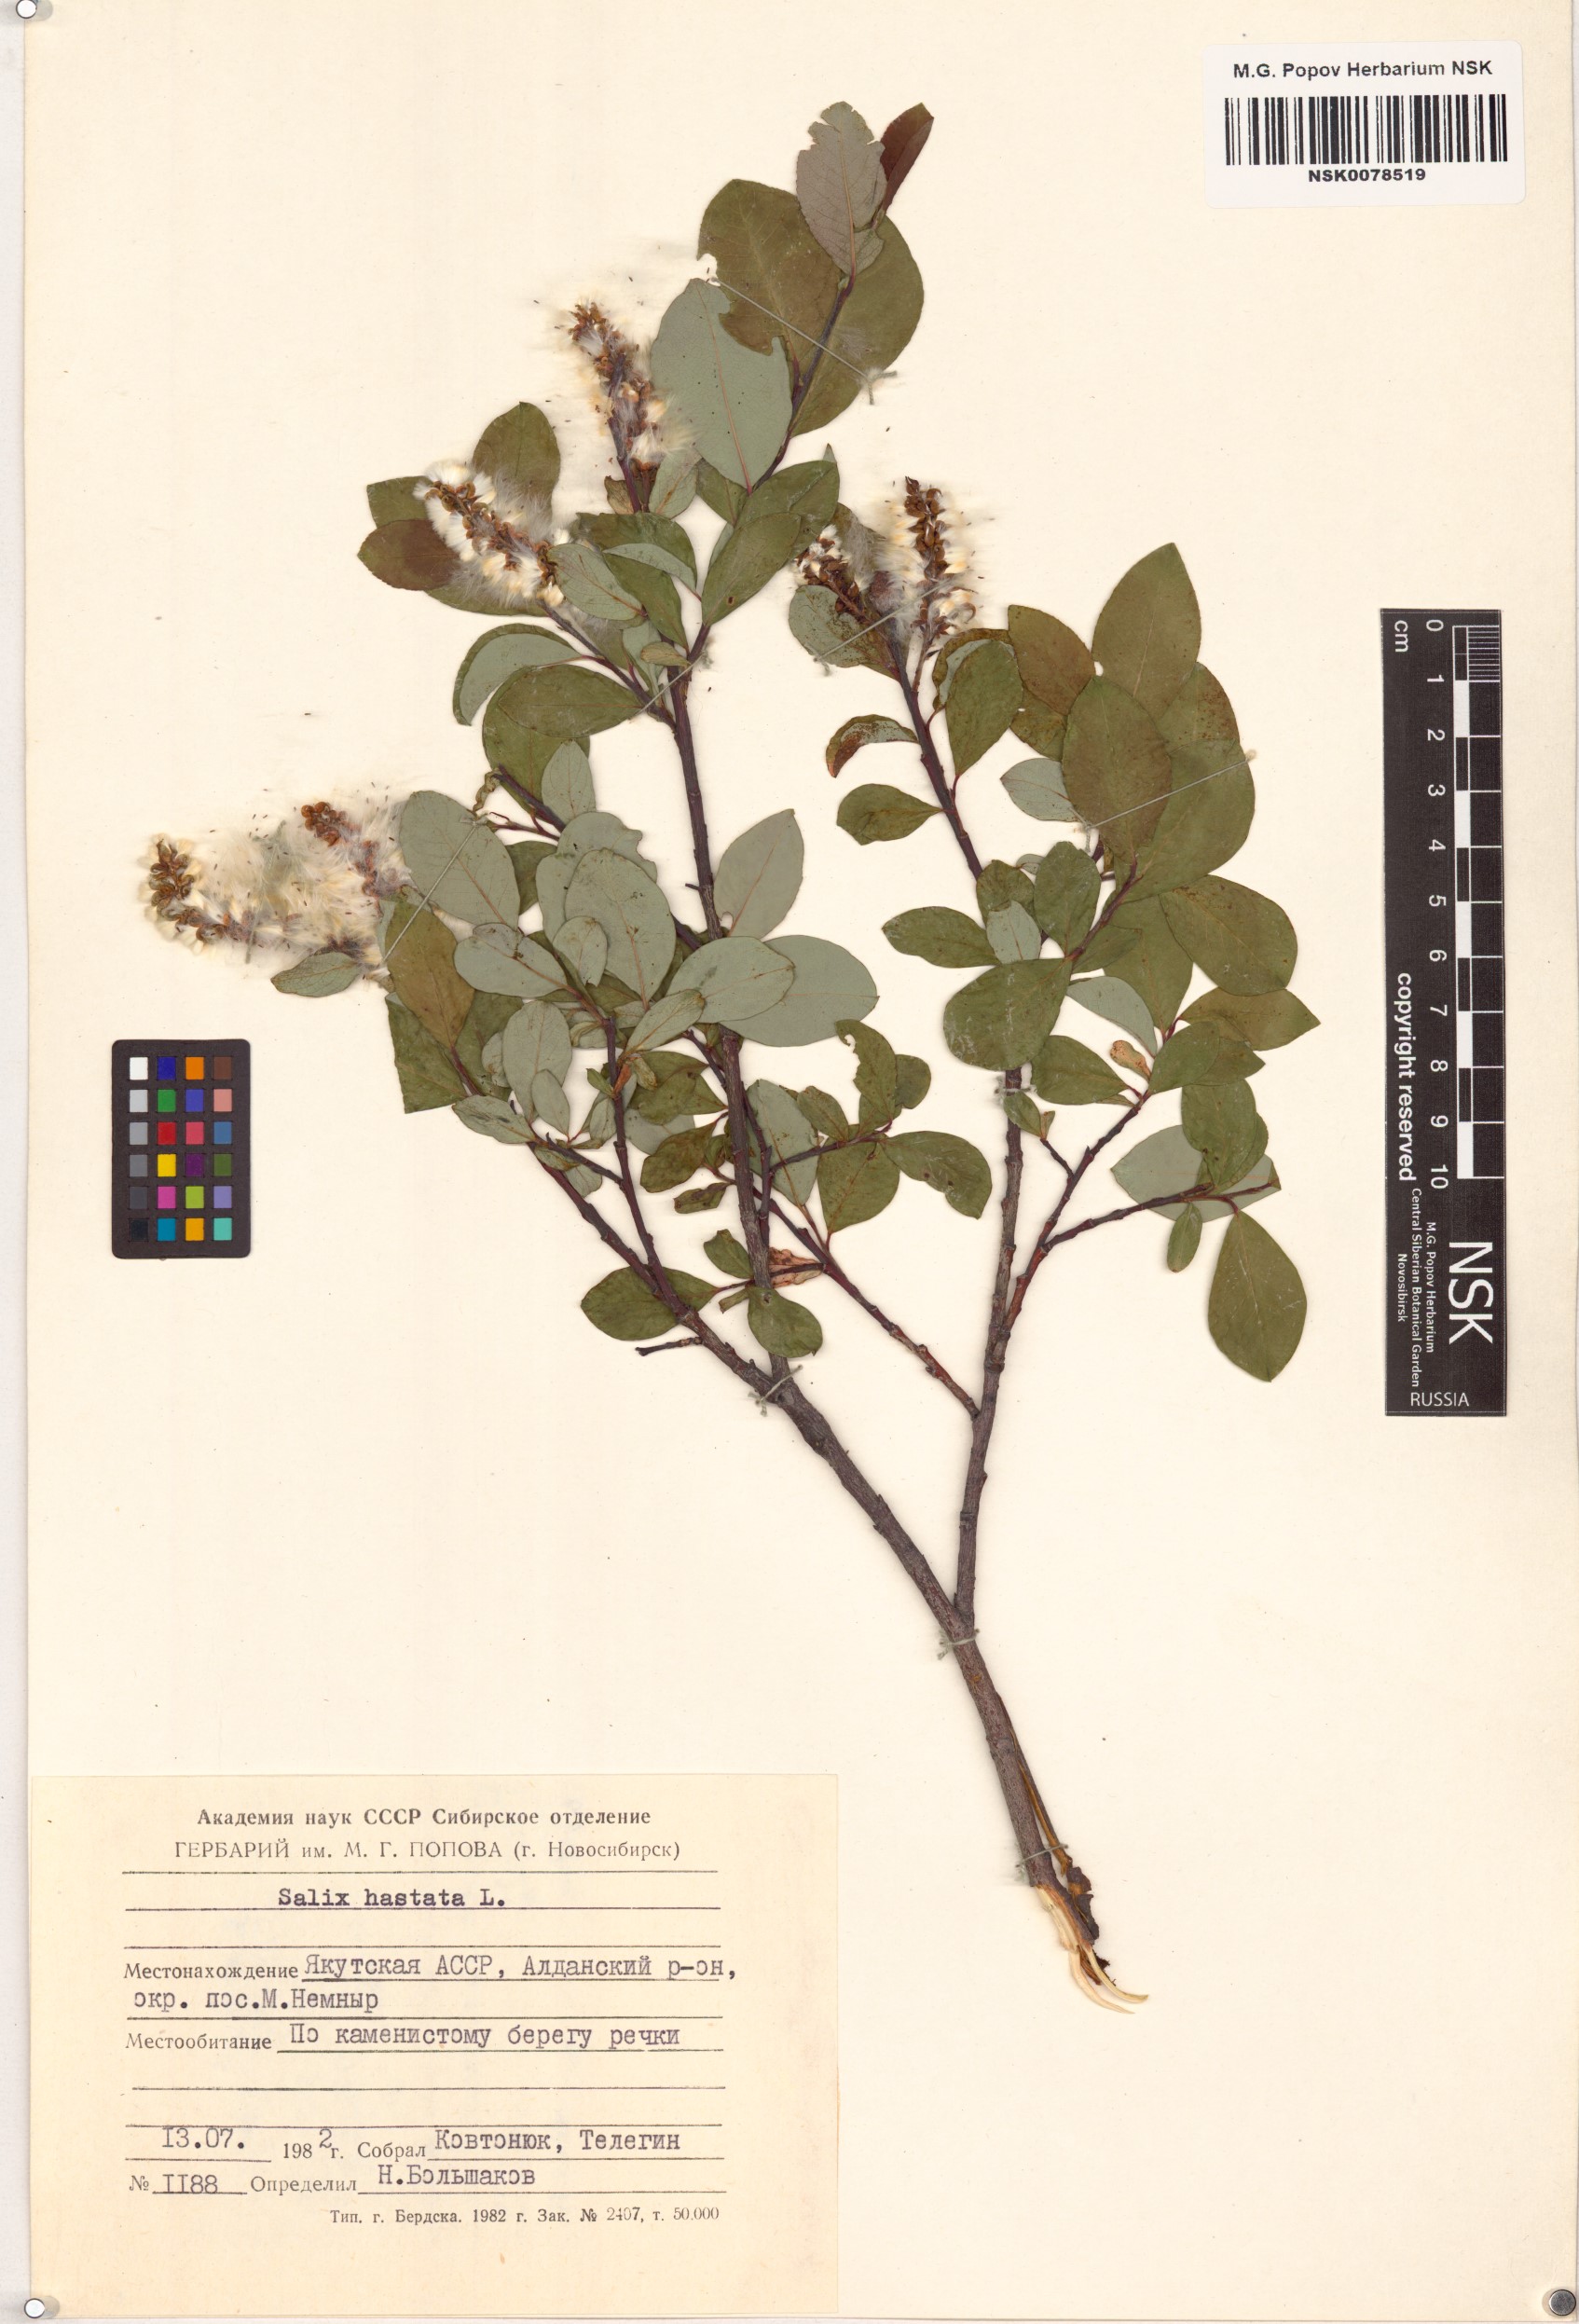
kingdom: Plantae
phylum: Tracheophyta
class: Magnoliopsida
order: Malpighiales
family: Salicaceae
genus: Salix
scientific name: Salix hastata
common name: Halberd willow
